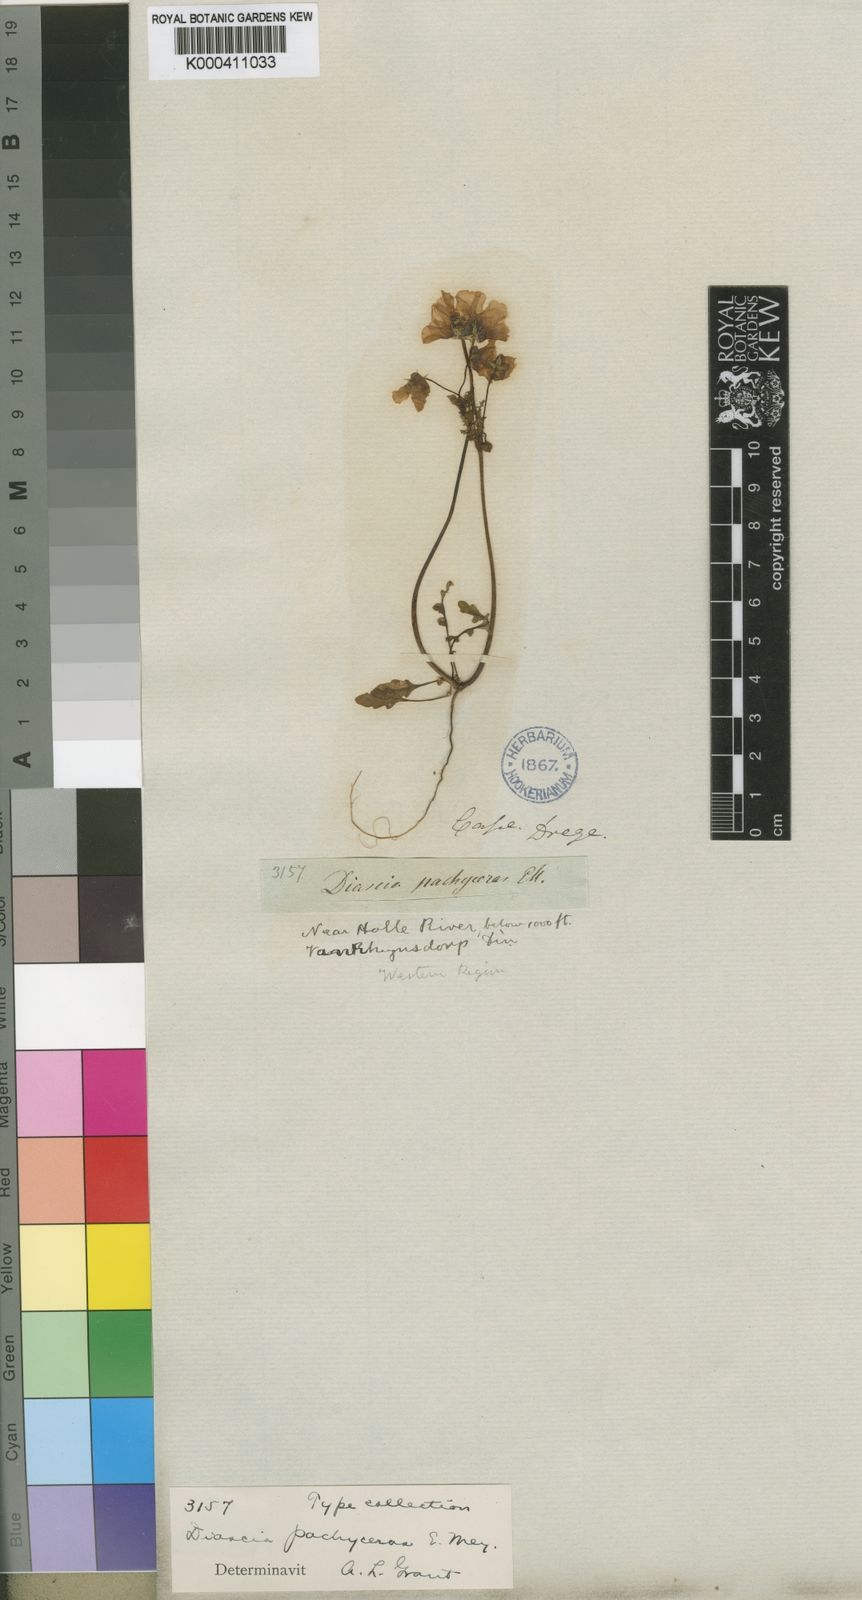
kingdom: Plantae
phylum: Tracheophyta
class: Magnoliopsida
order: Lamiales
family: Scrophulariaceae
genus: Diascia
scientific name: Diascia pachyceras
